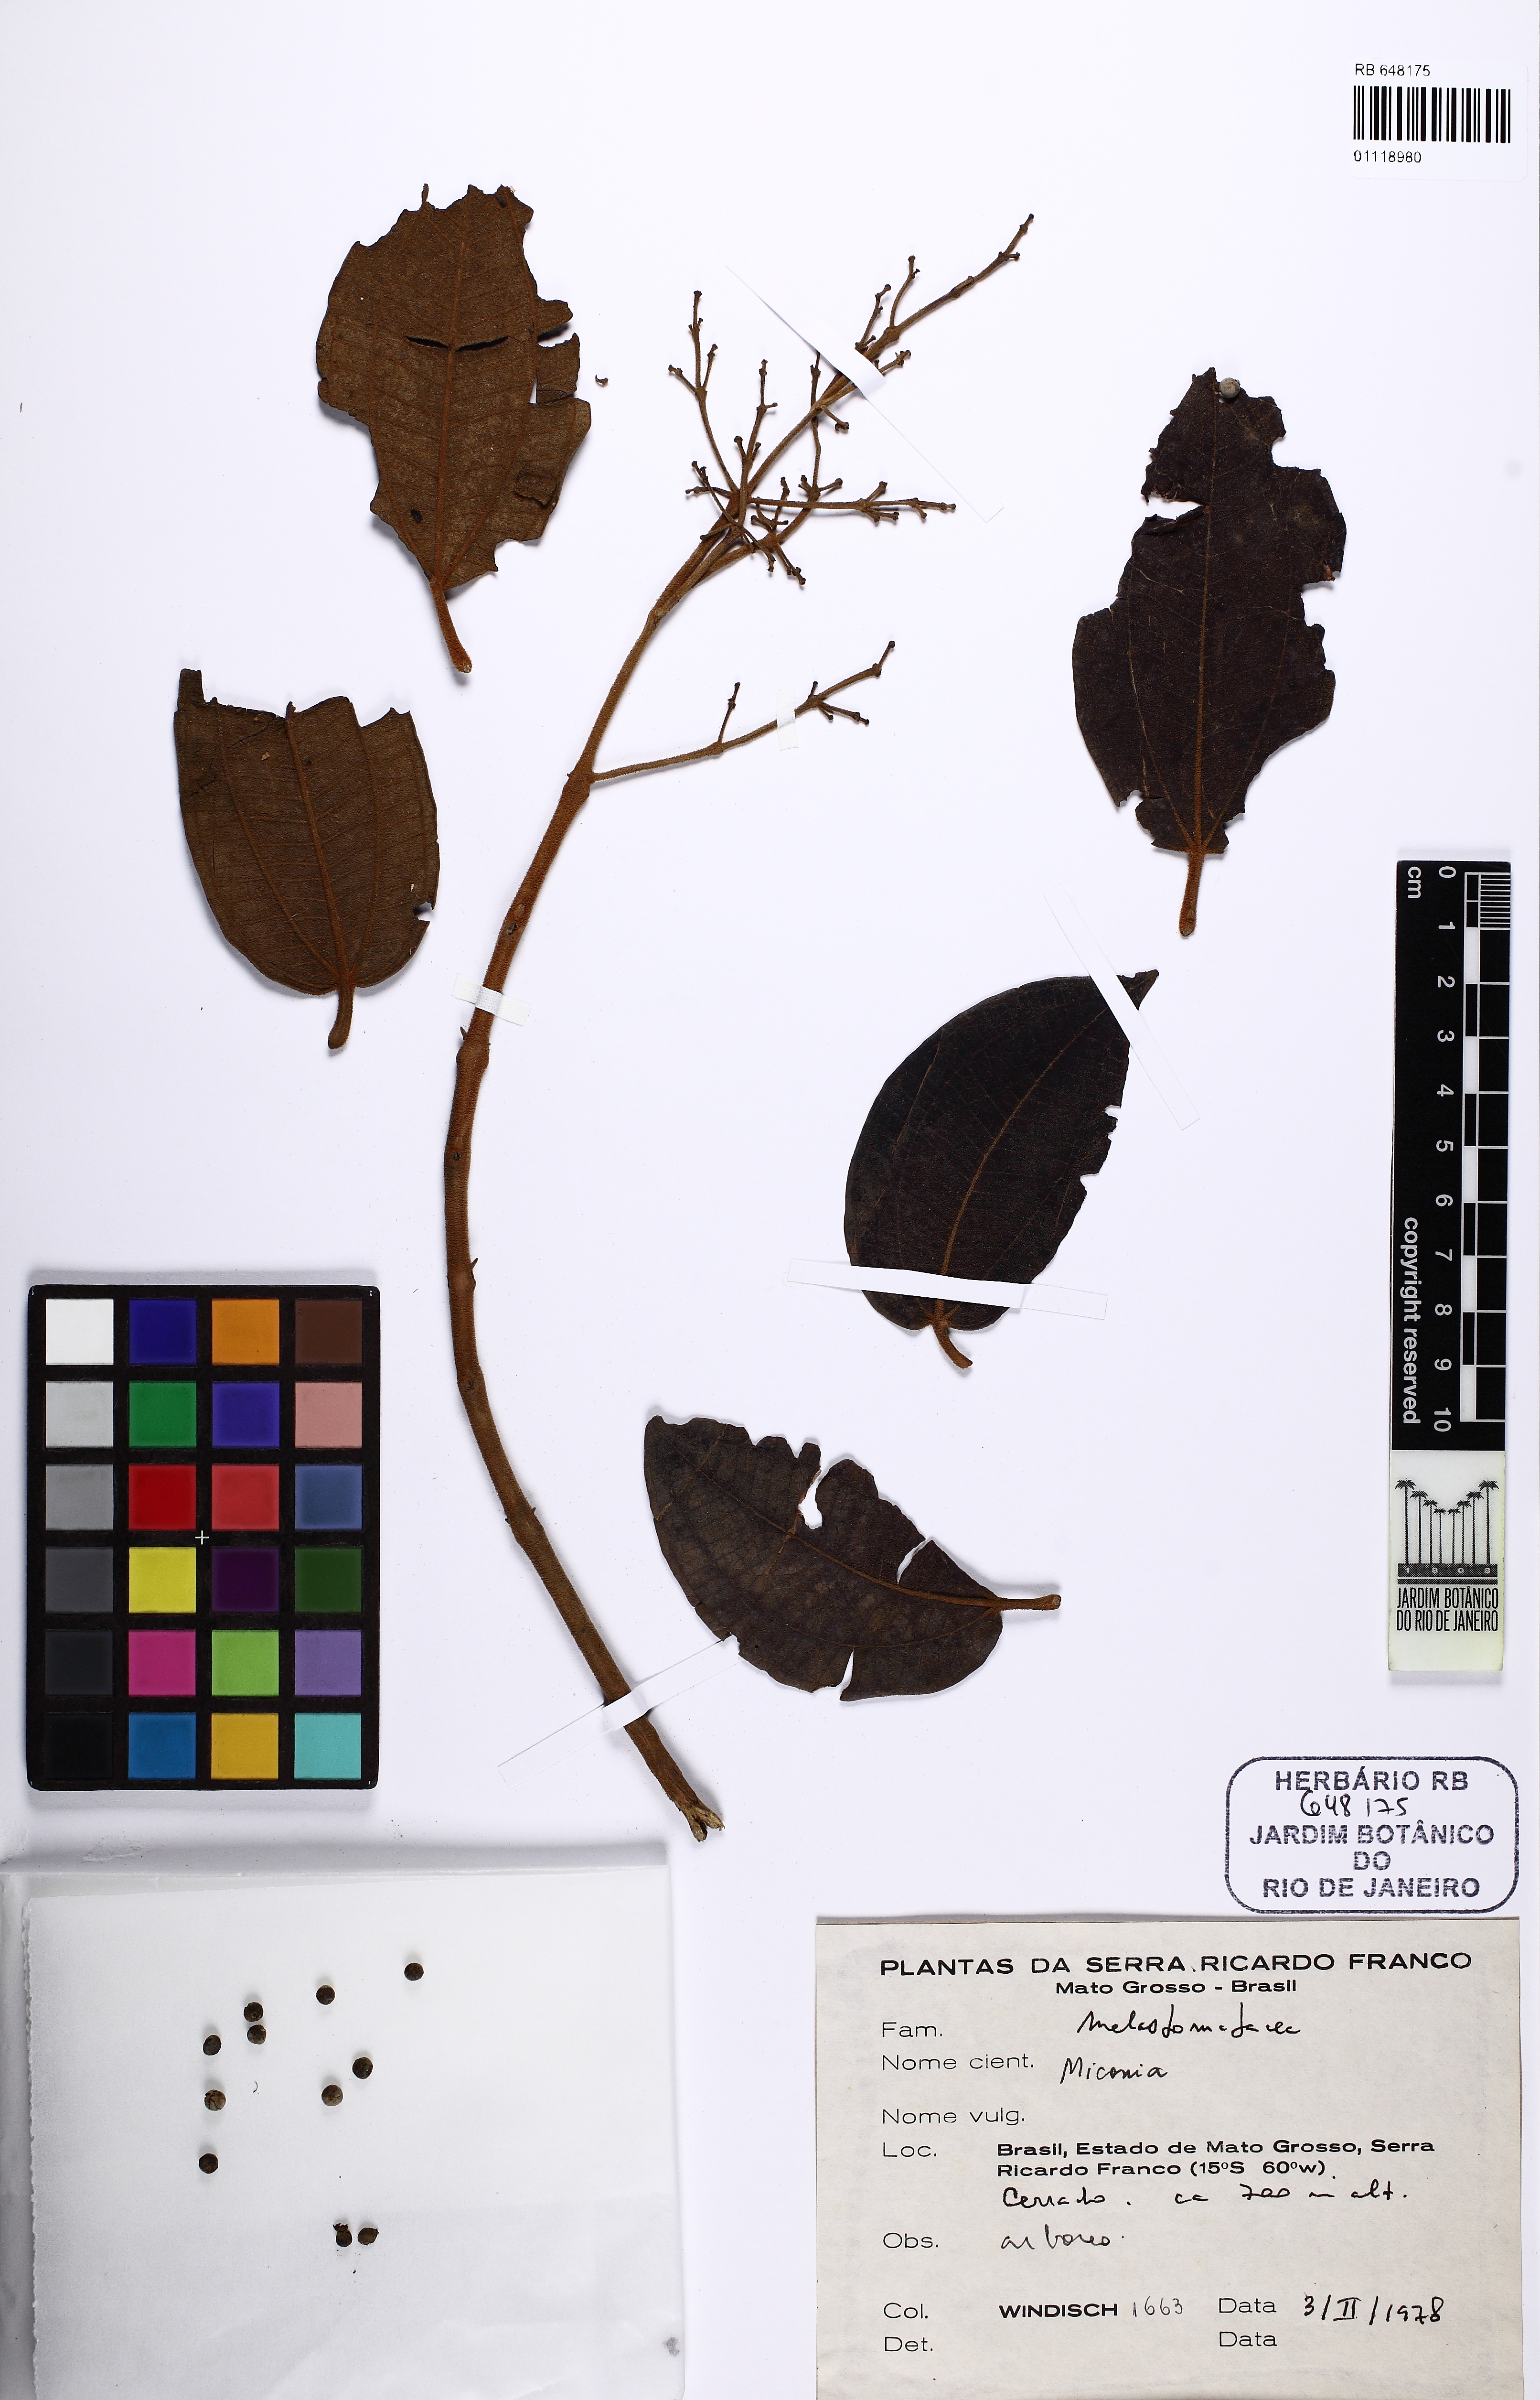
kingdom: Plantae
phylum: Tracheophyta
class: Magnoliopsida
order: Myrtales
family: Melastomataceae
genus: Miconia
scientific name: Miconia
